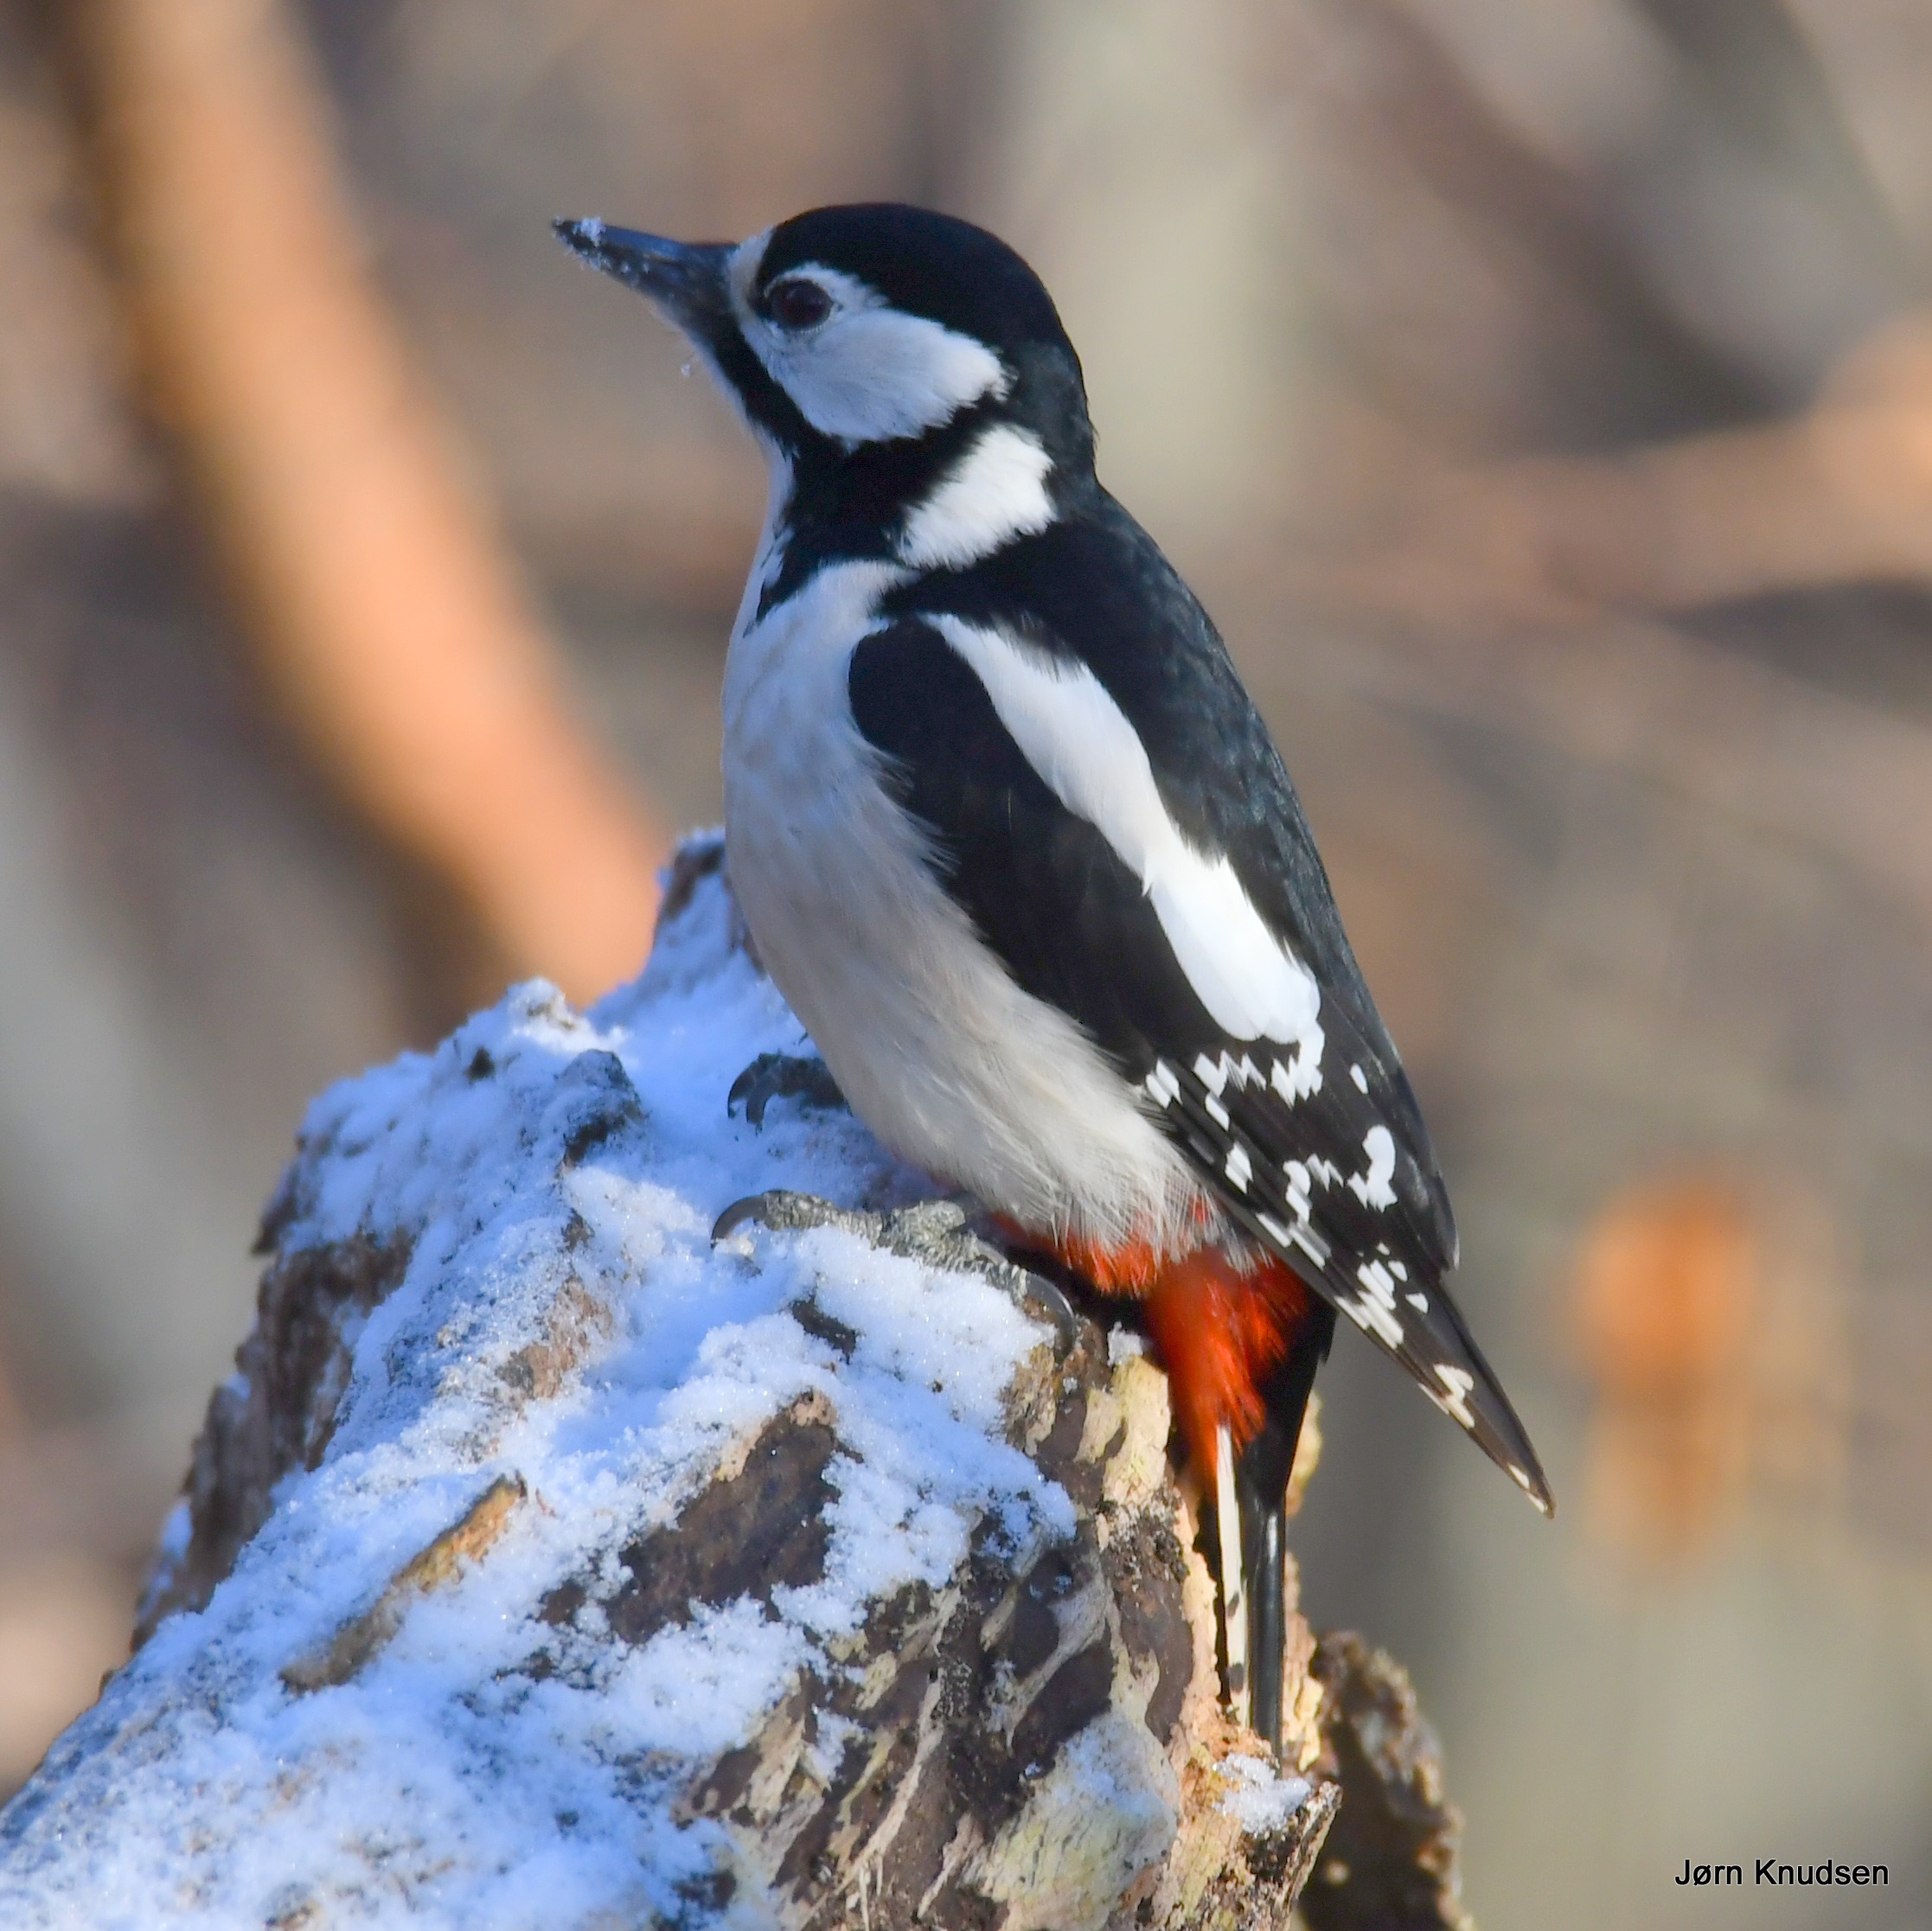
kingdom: Animalia
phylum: Chordata
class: Aves
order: Piciformes
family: Picidae
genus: Dendrocopos
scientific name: Dendrocopos major
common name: Stor flagspætte
